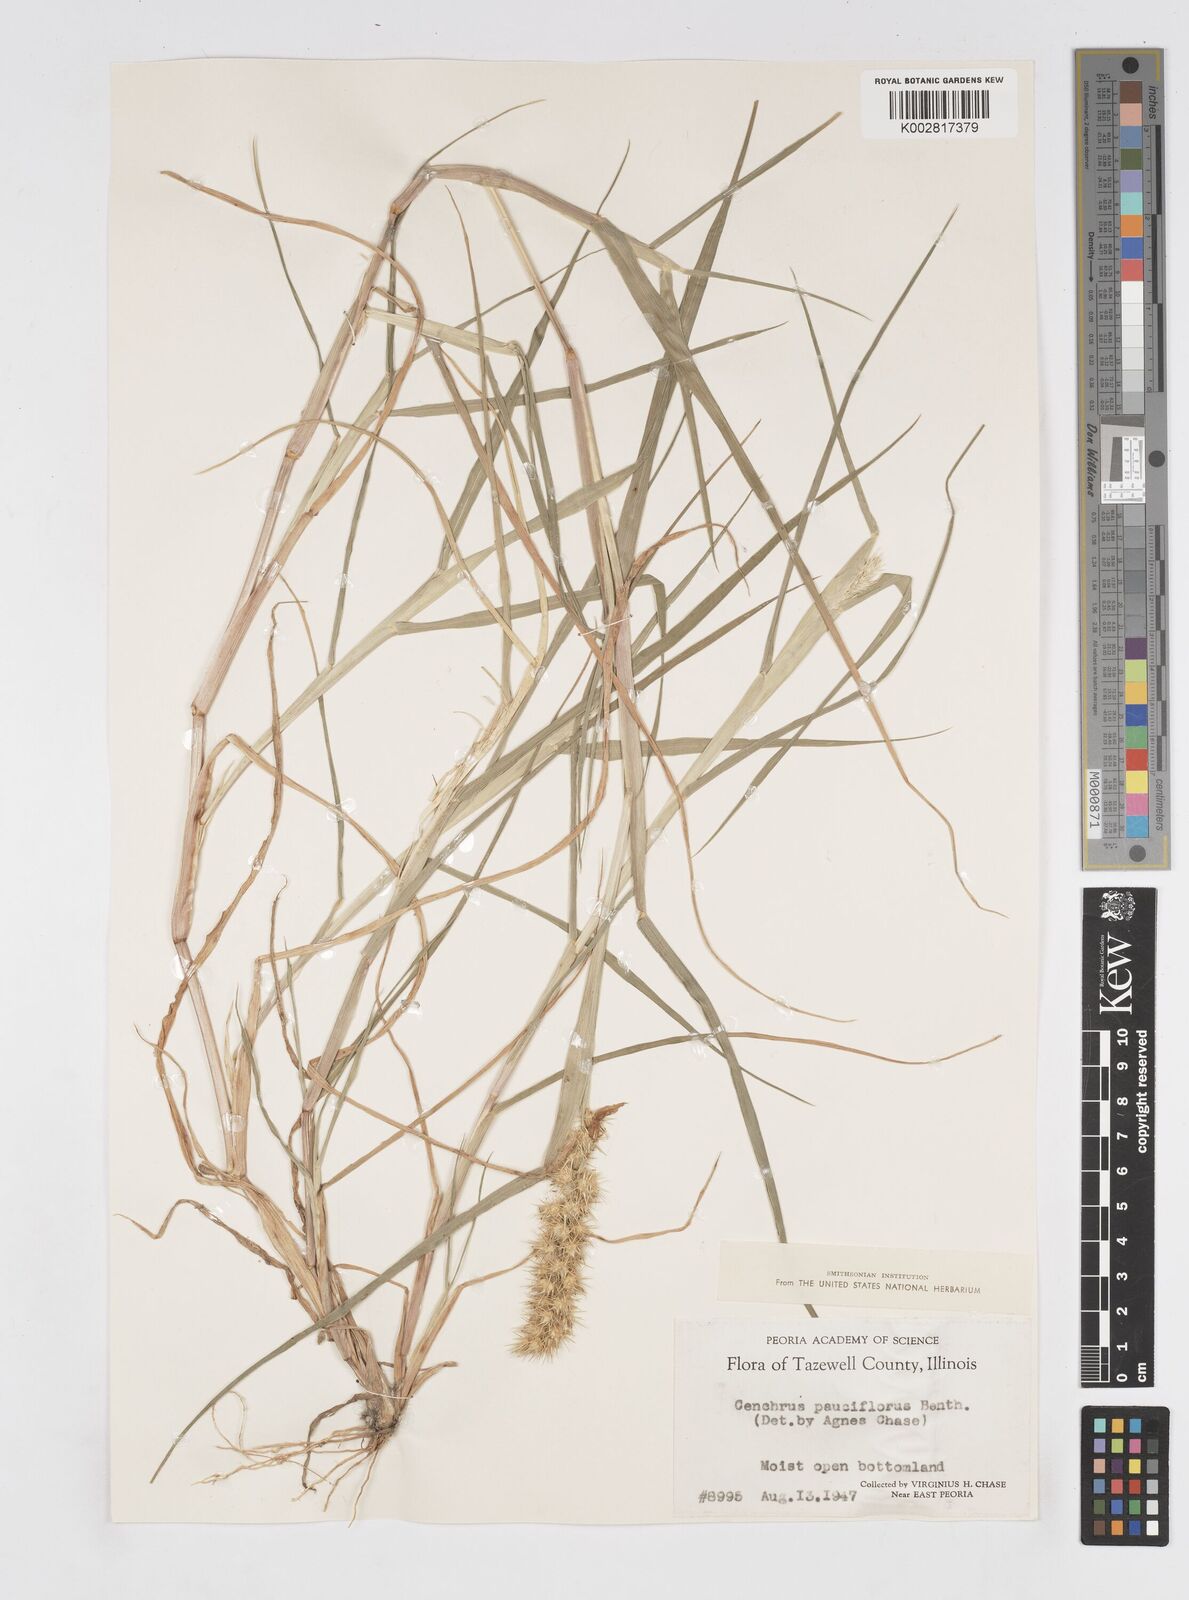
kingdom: Plantae
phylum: Tracheophyta
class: Liliopsida
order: Poales
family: Poaceae
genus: Cenchrus
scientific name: Cenchrus longispinus
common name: Mat sandbur
